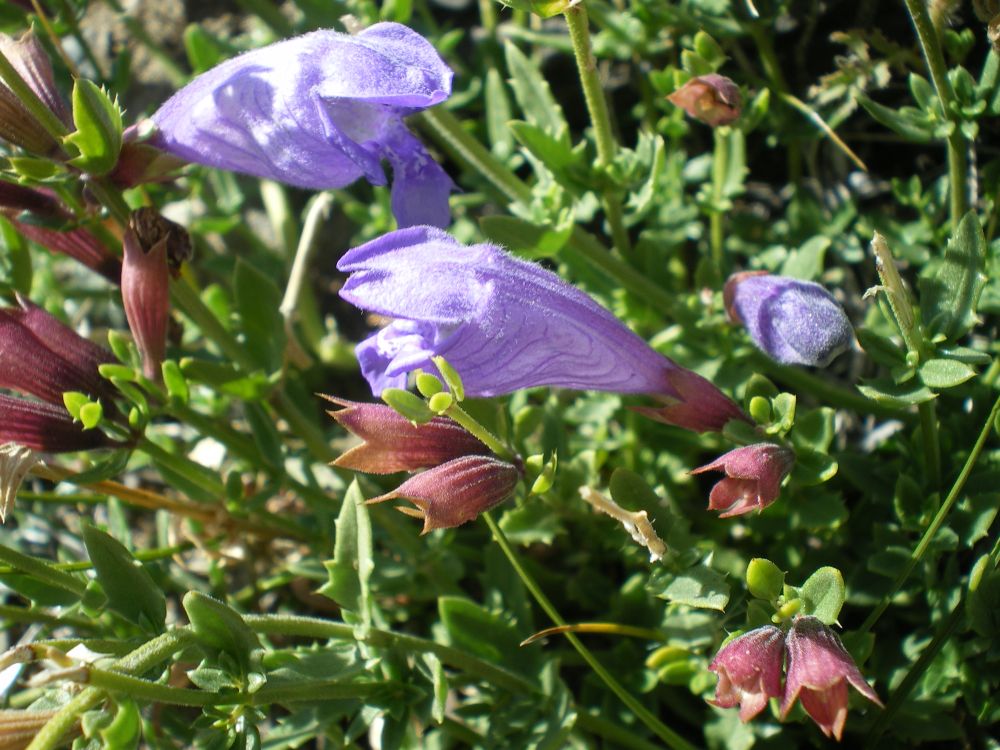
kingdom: Plantae
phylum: Tracheophyta
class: Magnoliopsida
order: Lamiales
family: Lamiaceae
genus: Dracocephalum
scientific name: Dracocephalum peregrinum
